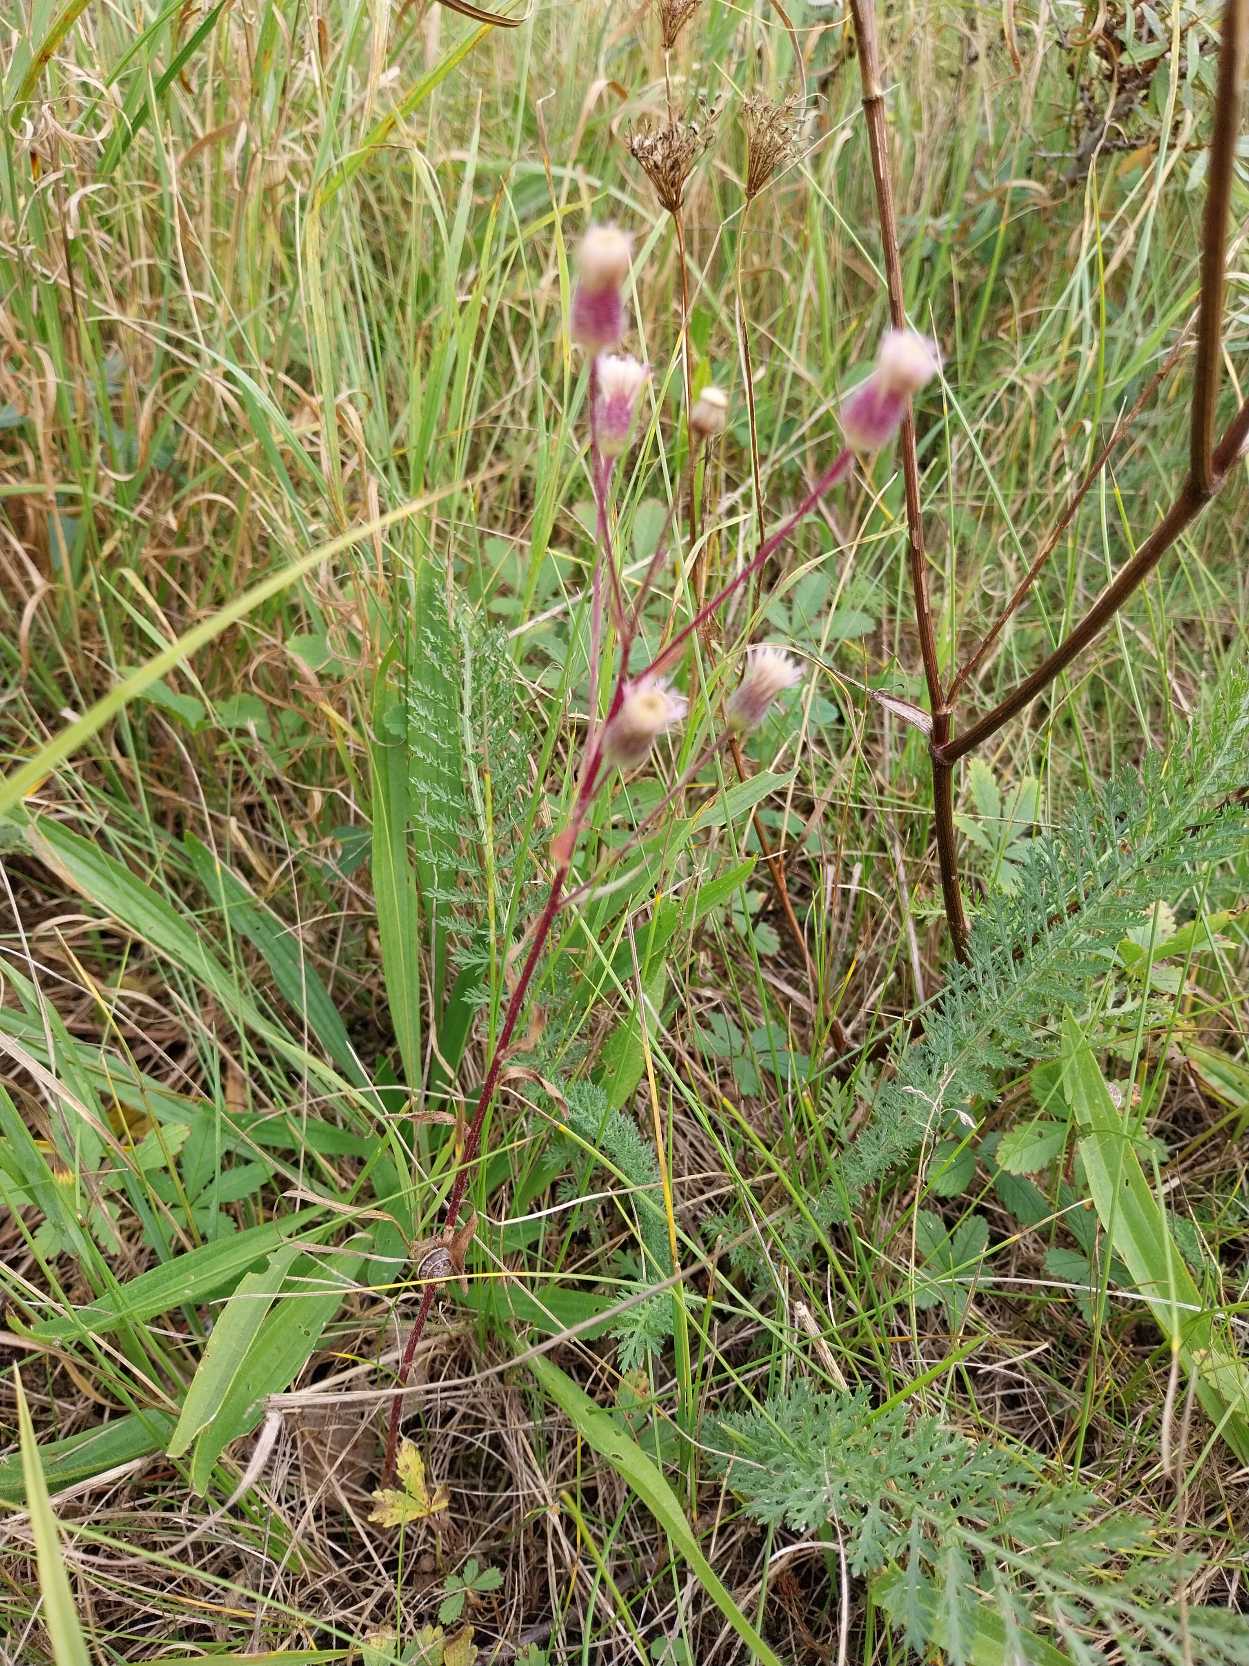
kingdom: Plantae
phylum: Tracheophyta
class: Magnoliopsida
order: Asterales
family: Asteraceae
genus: Erigeron
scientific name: Erigeron muralis
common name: Vreden bakkestjerne
